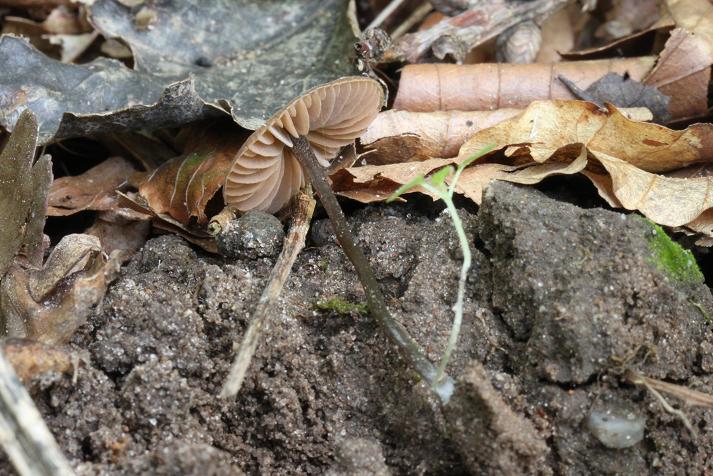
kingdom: Fungi
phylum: Basidiomycota
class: Agaricomycetes
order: Agaricales
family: Entolomataceae
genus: Entoloma
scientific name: Entoloma sanvitalense
